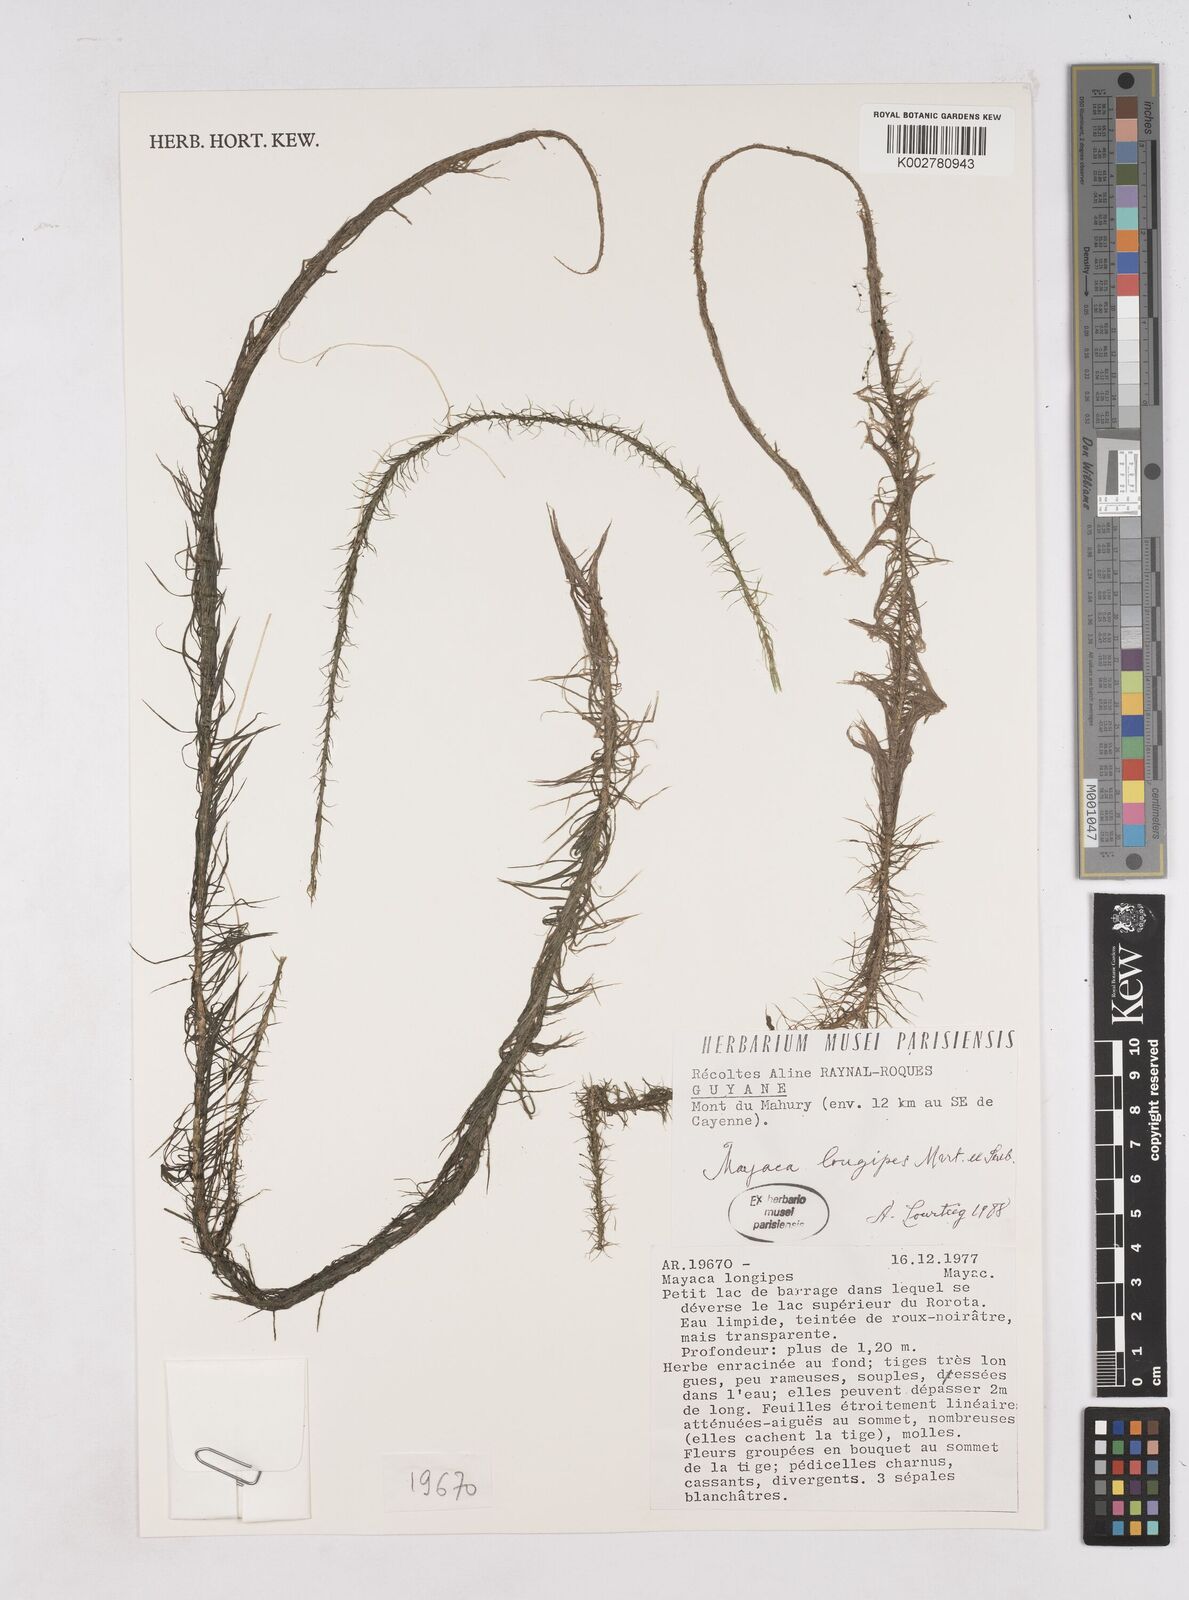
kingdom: Plantae
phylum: Tracheophyta
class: Liliopsida
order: Poales
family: Mayacaceae
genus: Mayaca
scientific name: Mayaca fluviatilis
